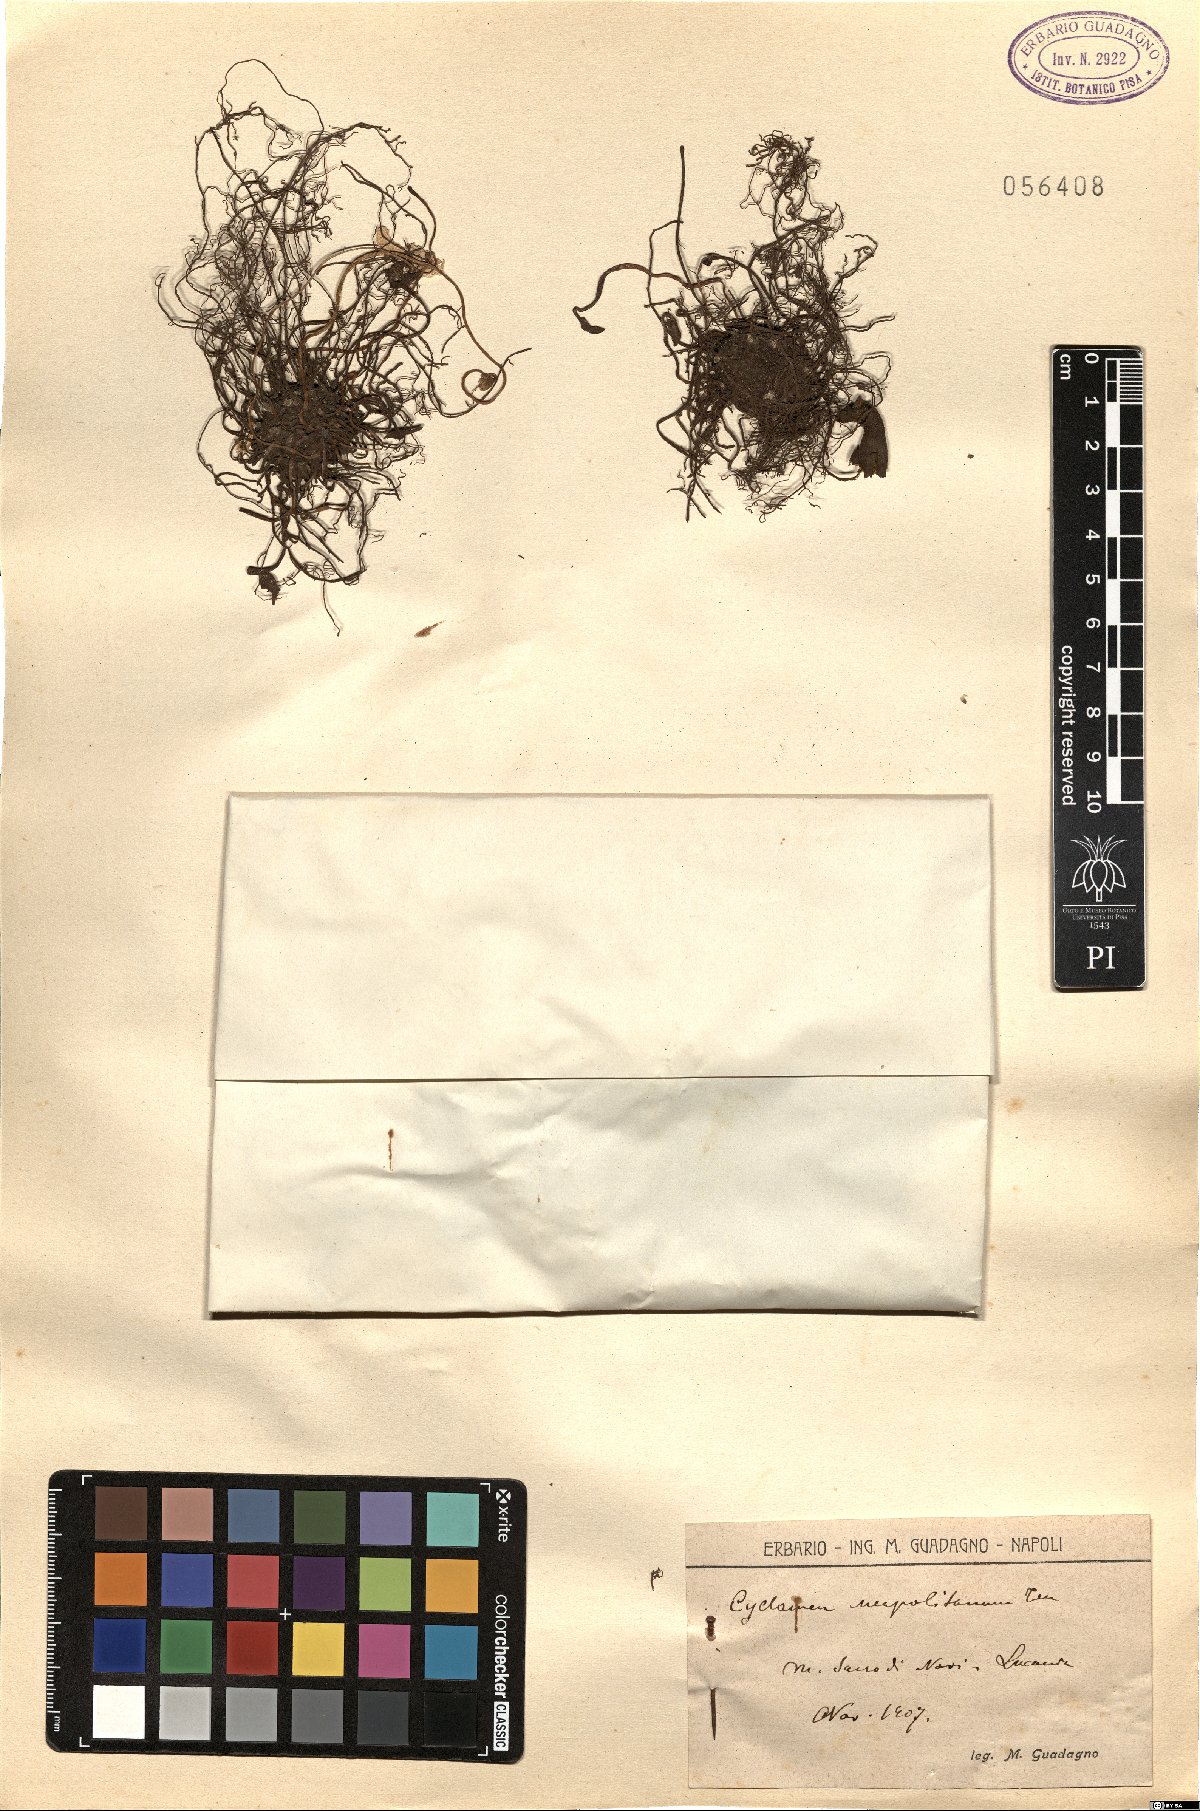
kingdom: Plantae
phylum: Tracheophyta
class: Magnoliopsida
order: Ericales
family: Primulaceae
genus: Cyclamen
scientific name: Cyclamen hederifolium
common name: Sowbread
